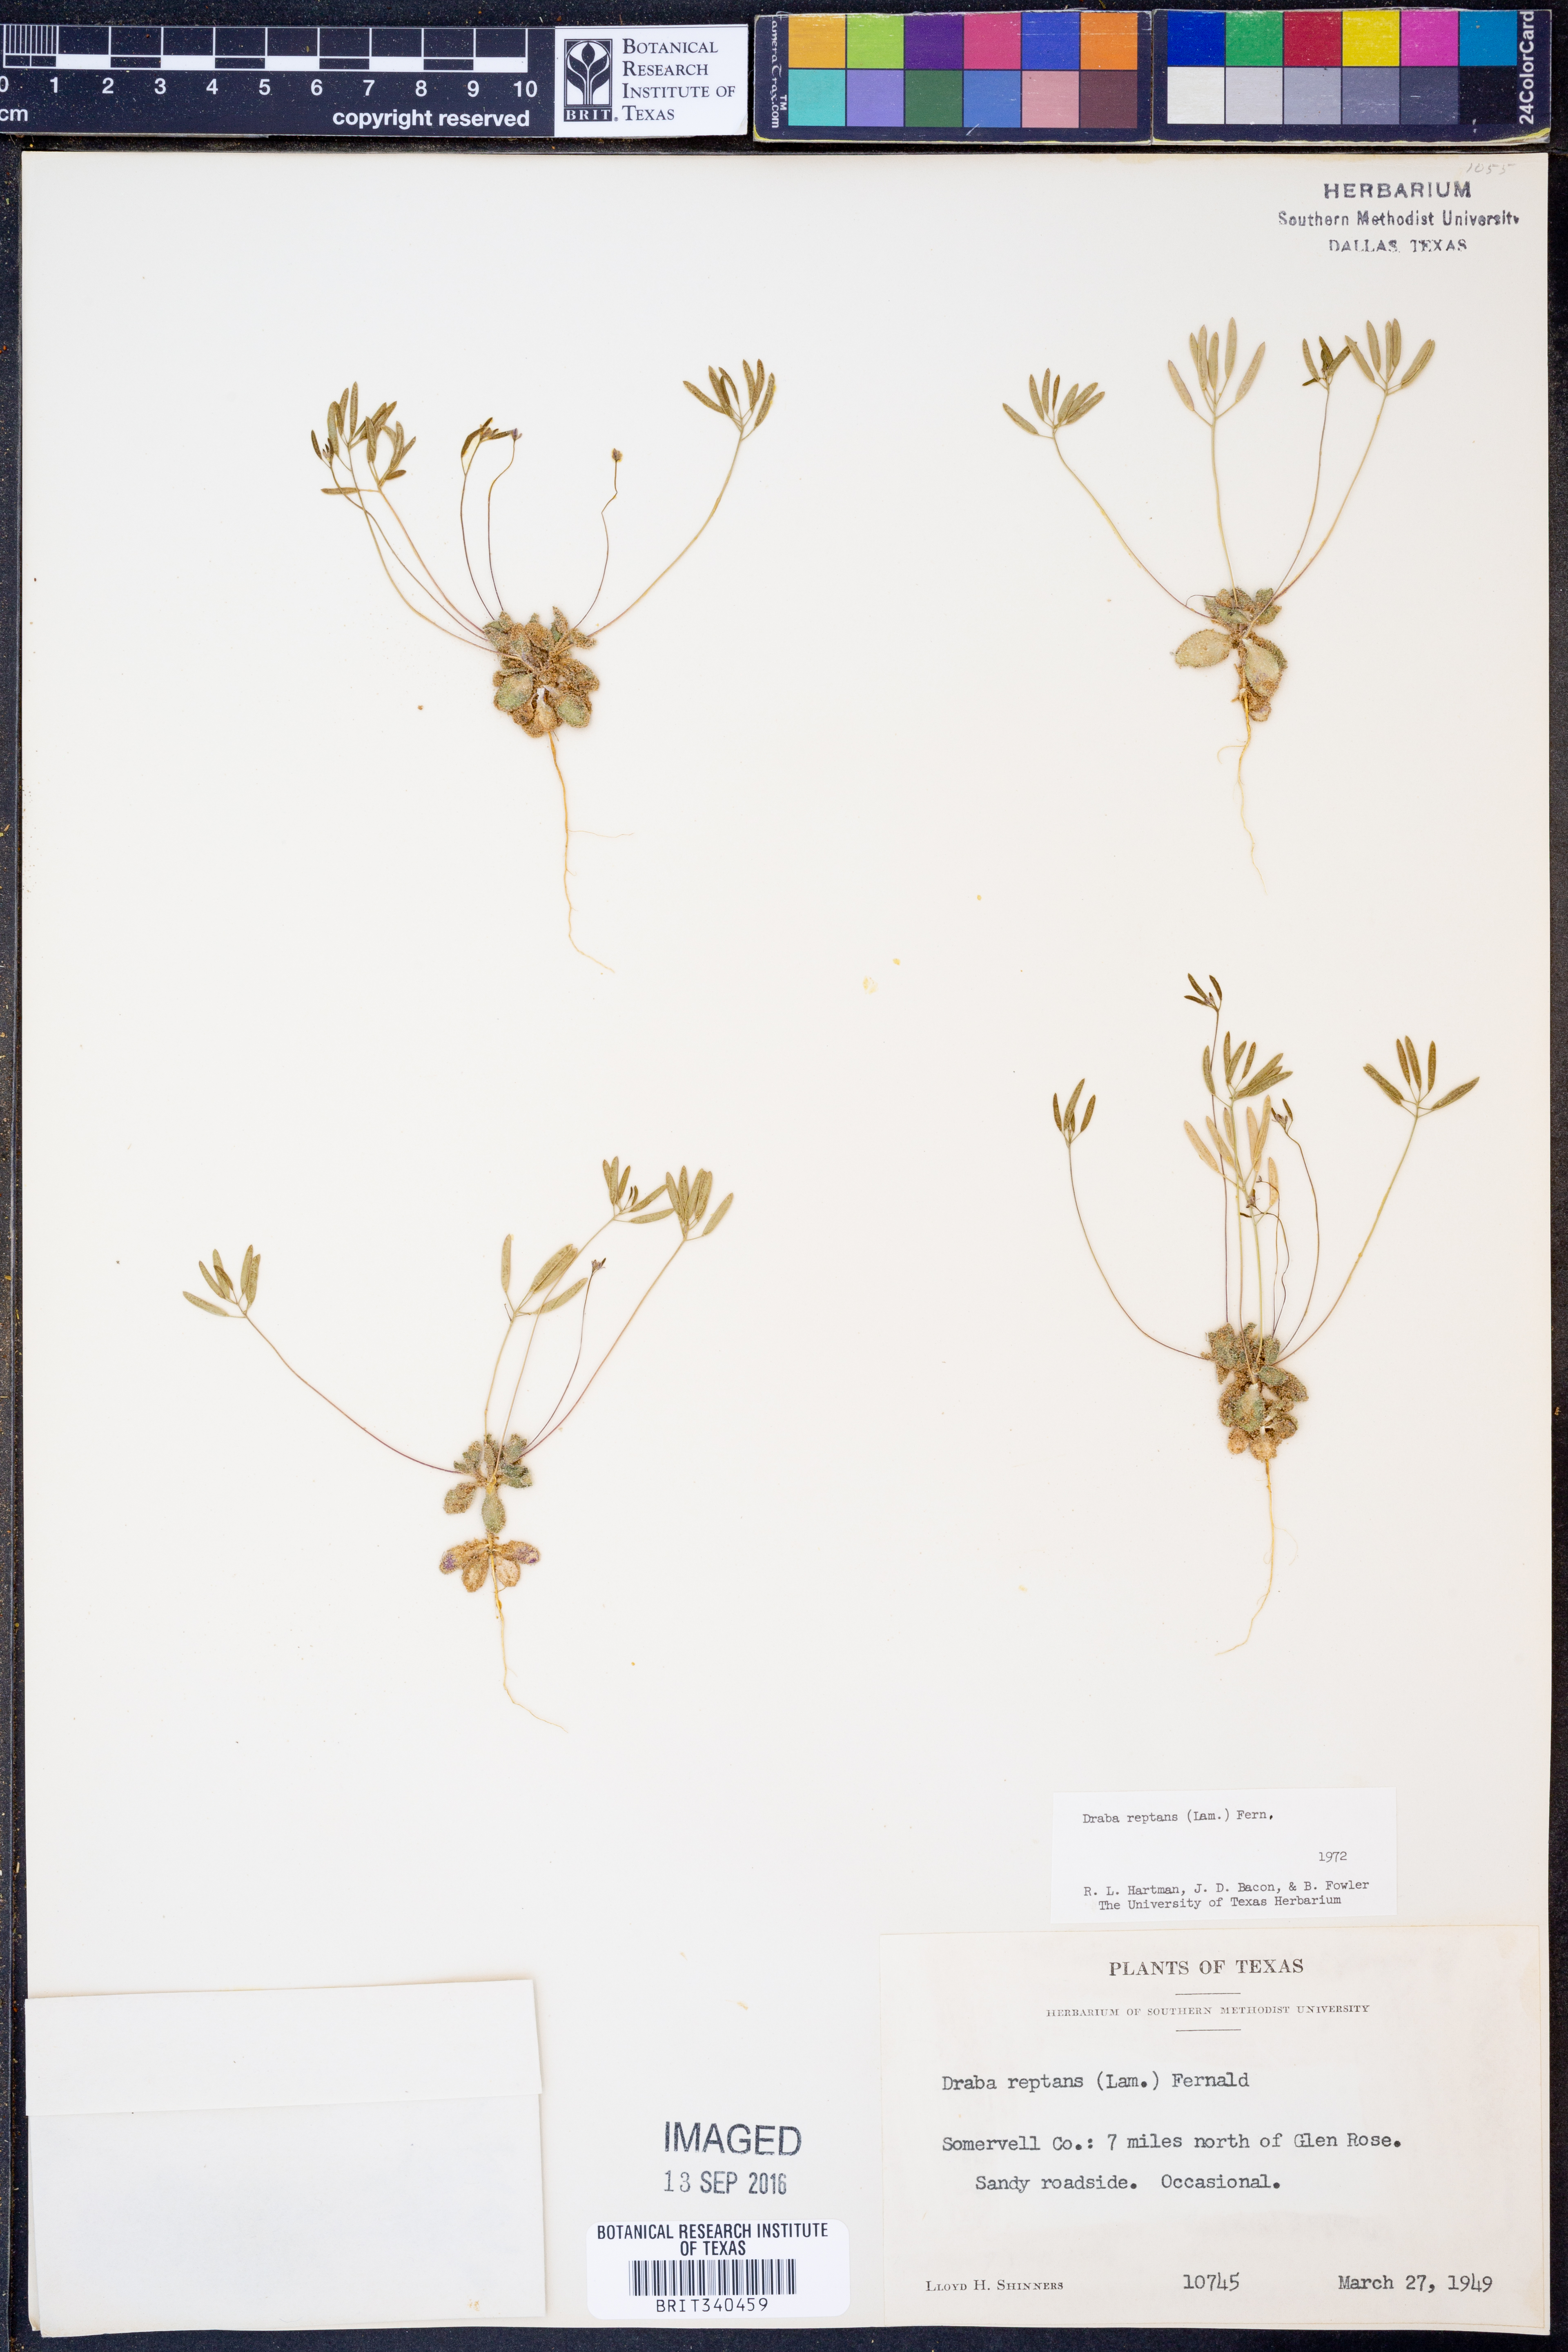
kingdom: Plantae
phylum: Tracheophyta
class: Magnoliopsida
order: Brassicales
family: Brassicaceae
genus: Tomostima
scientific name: Tomostima reptans
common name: Carolina draba
